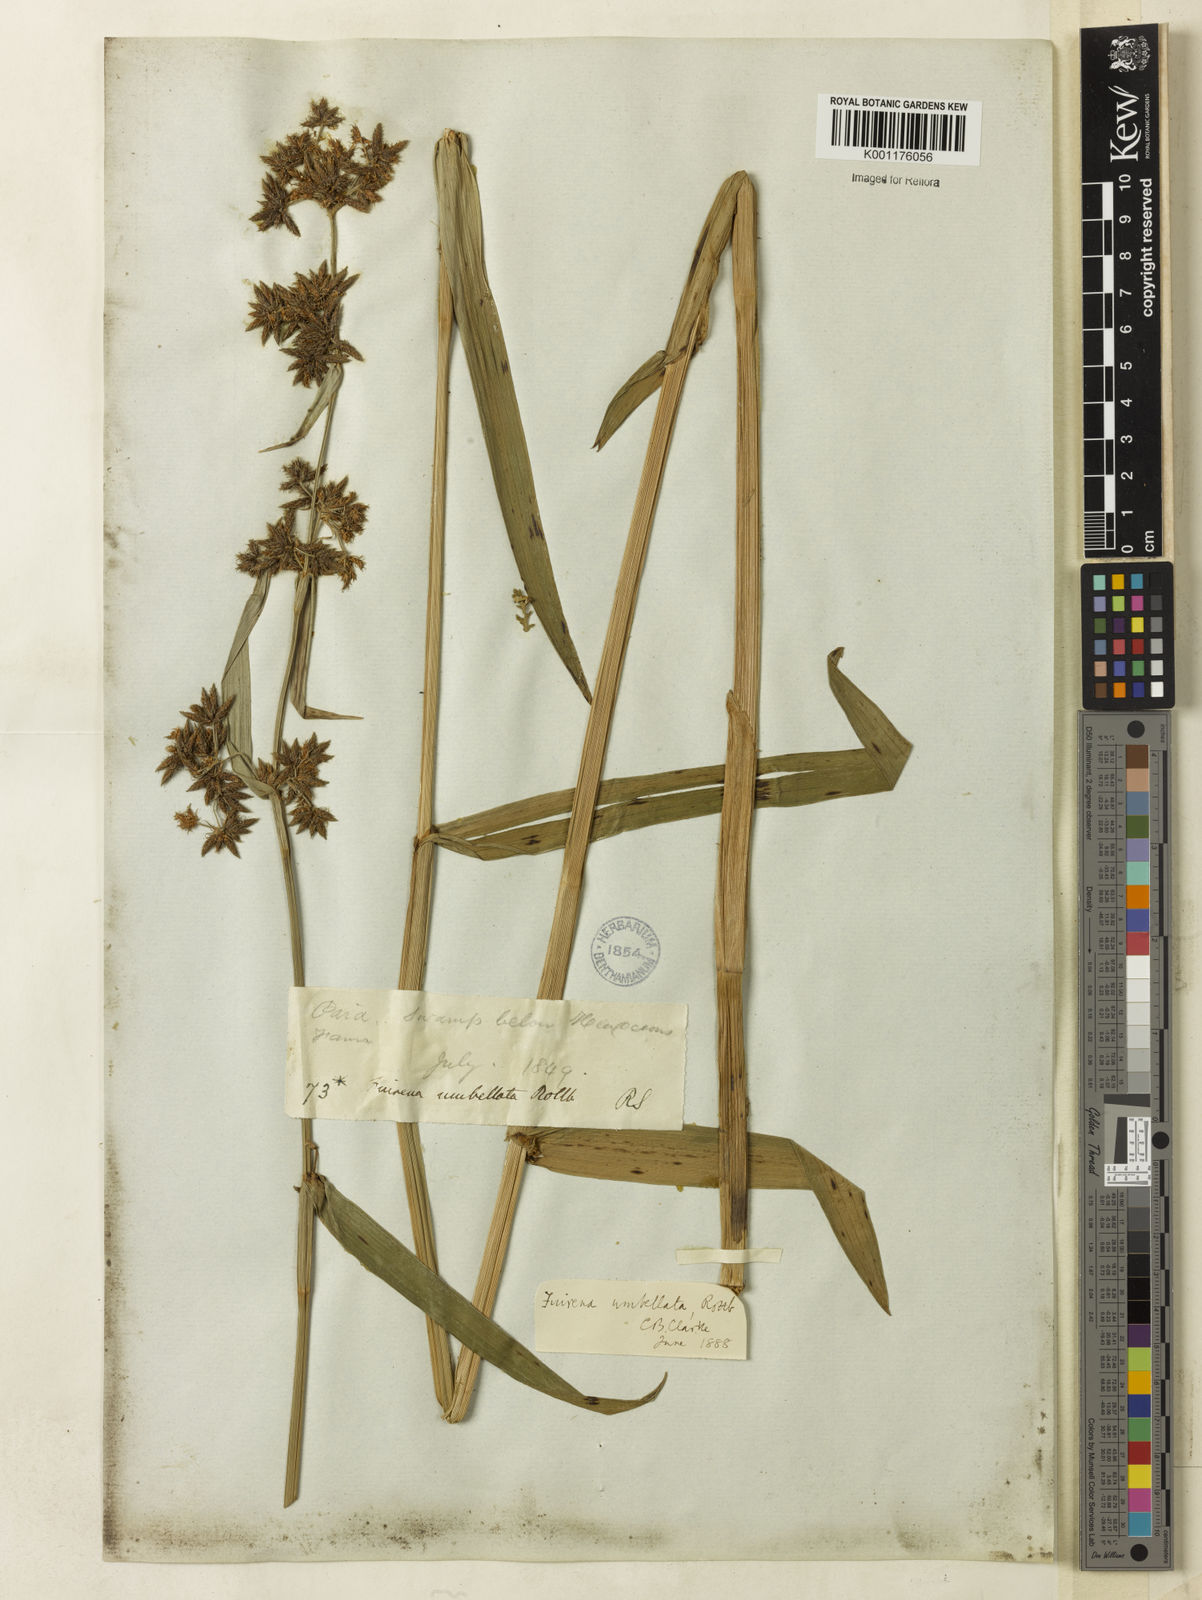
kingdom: Plantae
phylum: Tracheophyta
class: Liliopsida
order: Poales
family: Cyperaceae
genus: Fuirena
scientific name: Fuirena umbellata
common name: Yefen
